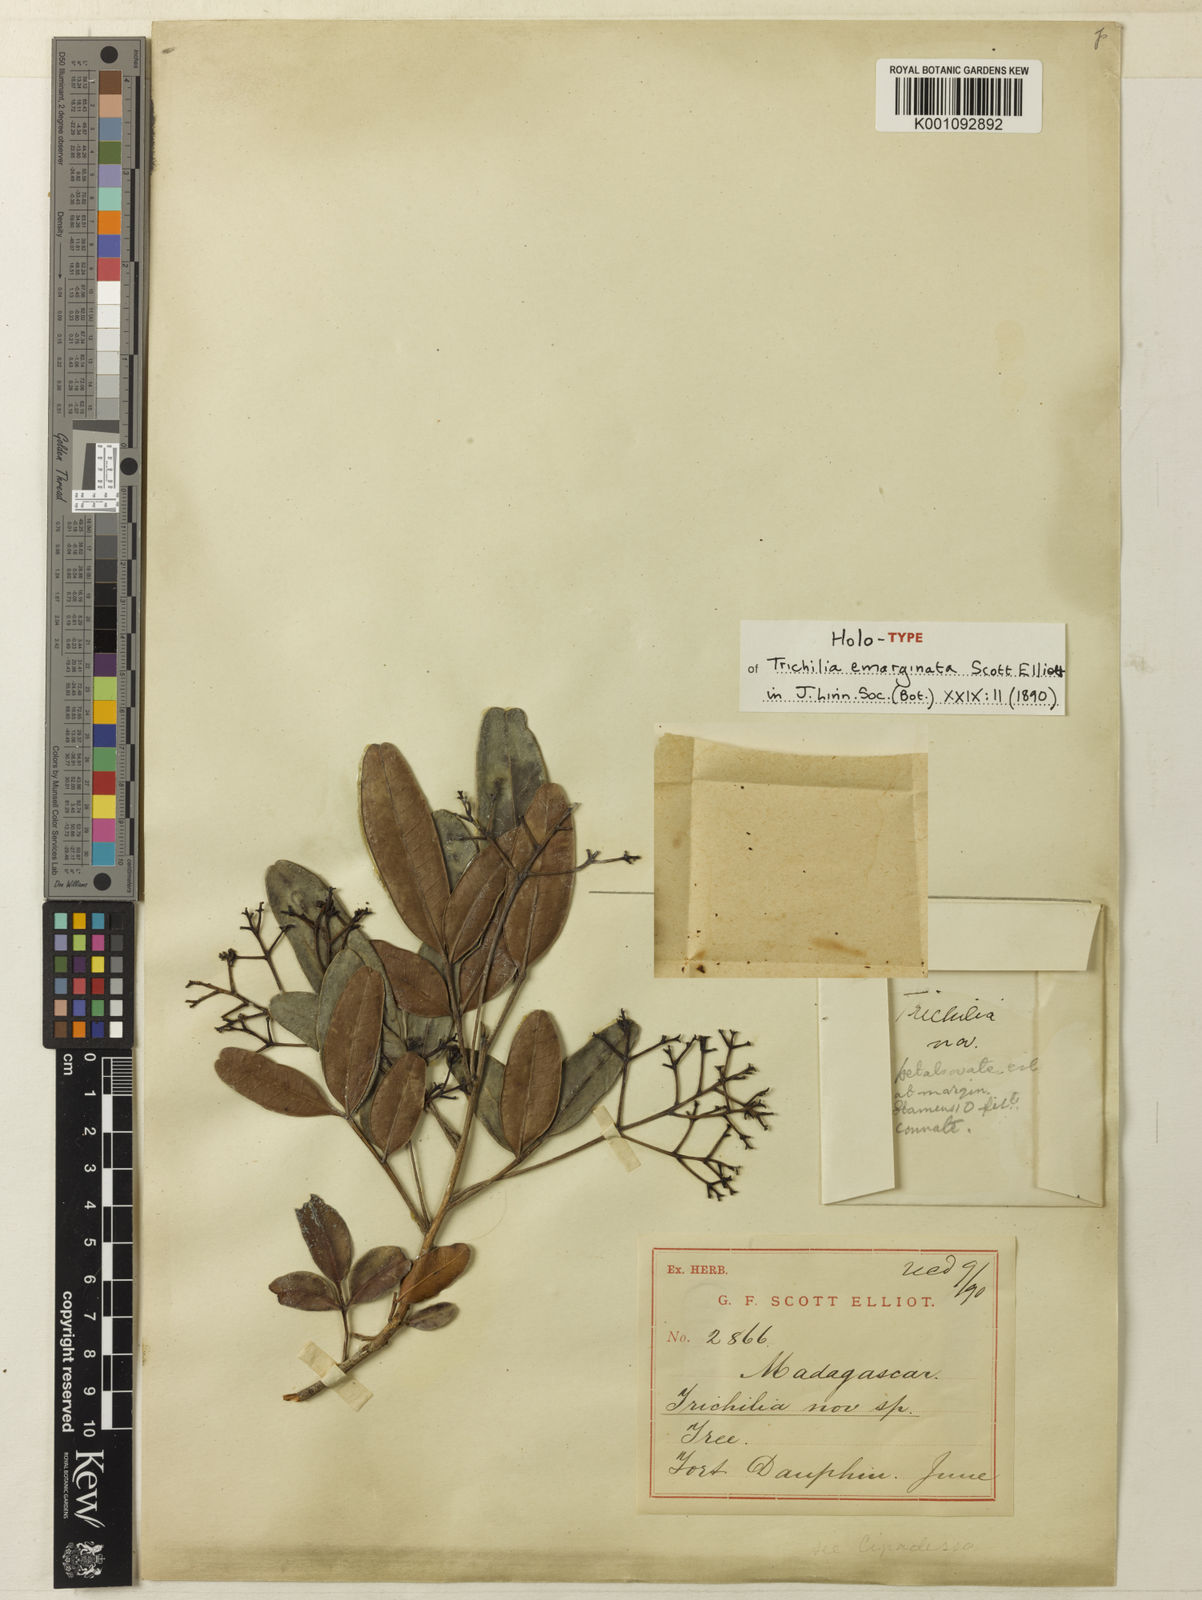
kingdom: Plantae
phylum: Tracheophyta
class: Magnoliopsida
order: Sapindales
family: Meliaceae
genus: Astrotrichilia
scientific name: Astrotrichilia elliotii
